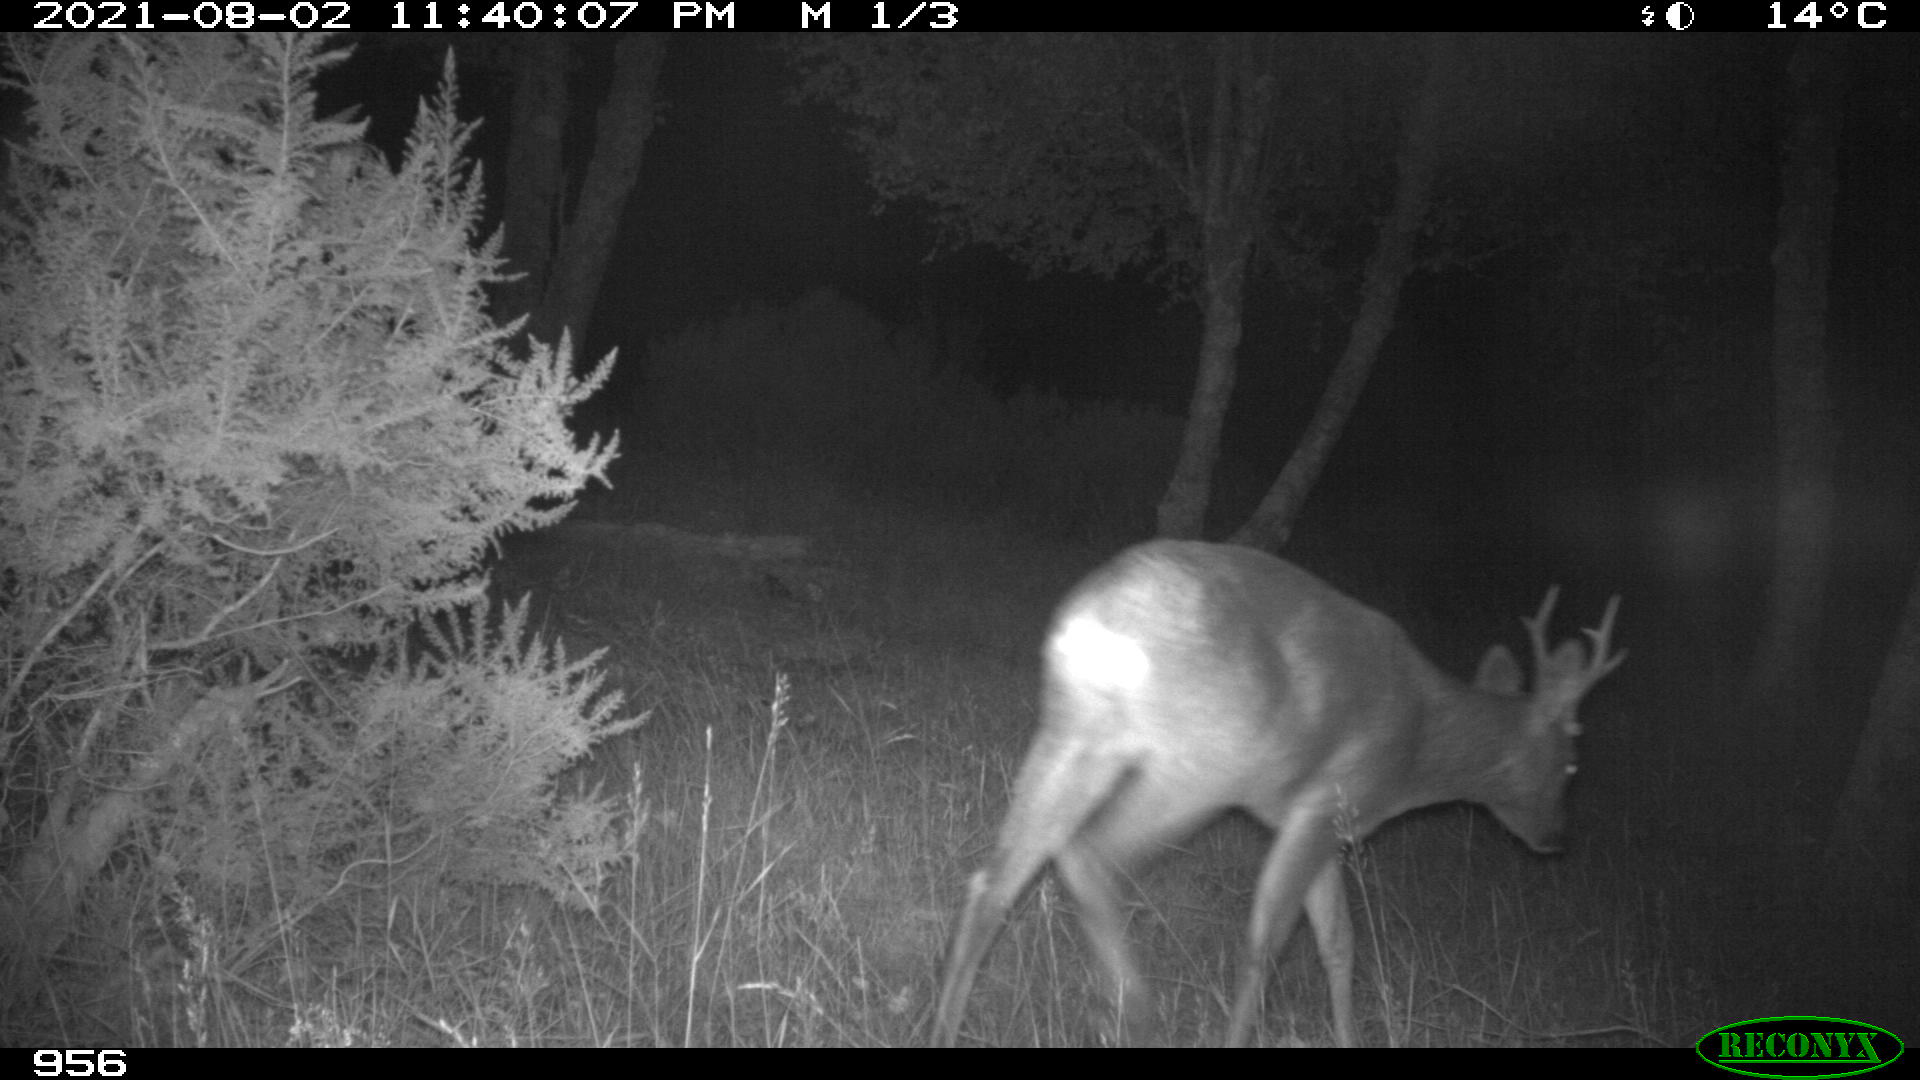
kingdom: Animalia
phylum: Chordata
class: Mammalia
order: Artiodactyla
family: Cervidae
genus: Capreolus
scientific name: Capreolus capreolus
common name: Western roe deer
